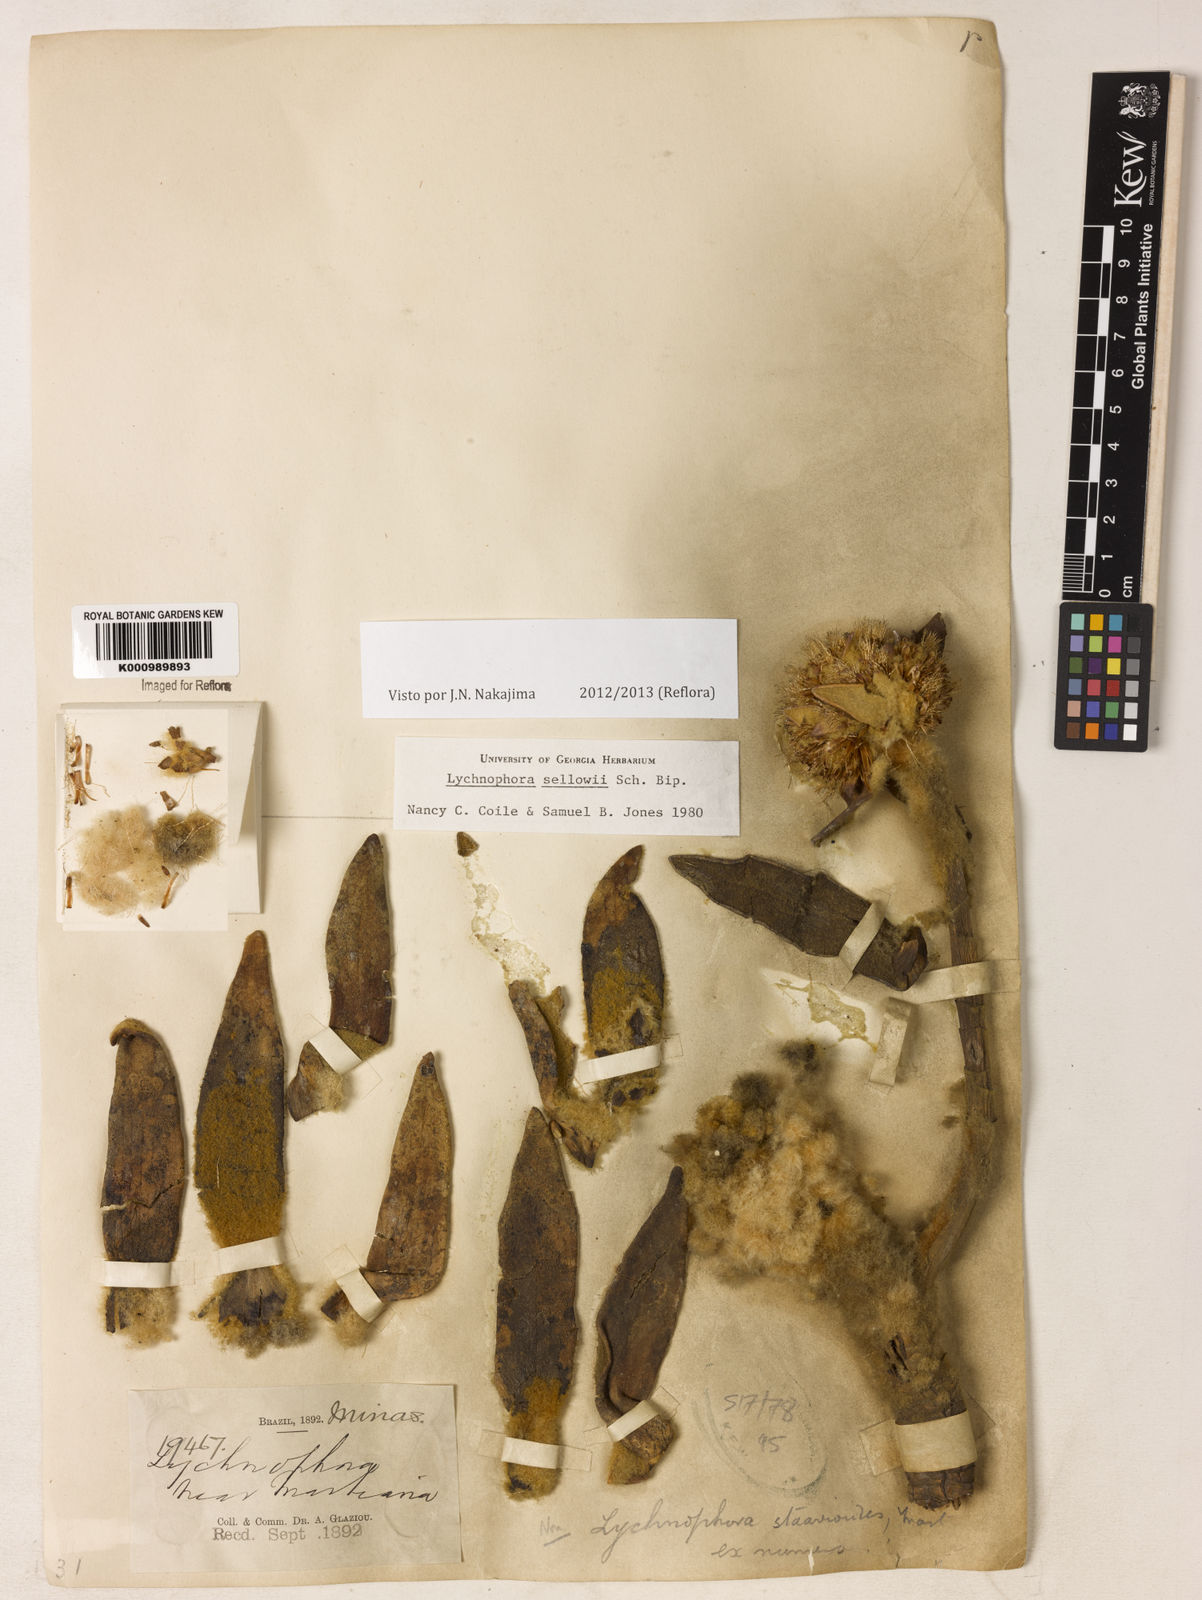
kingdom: Plantae
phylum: Tracheophyta
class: Magnoliopsida
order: Asterales
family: Asteraceae
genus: Lychnophora
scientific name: Lychnophora
